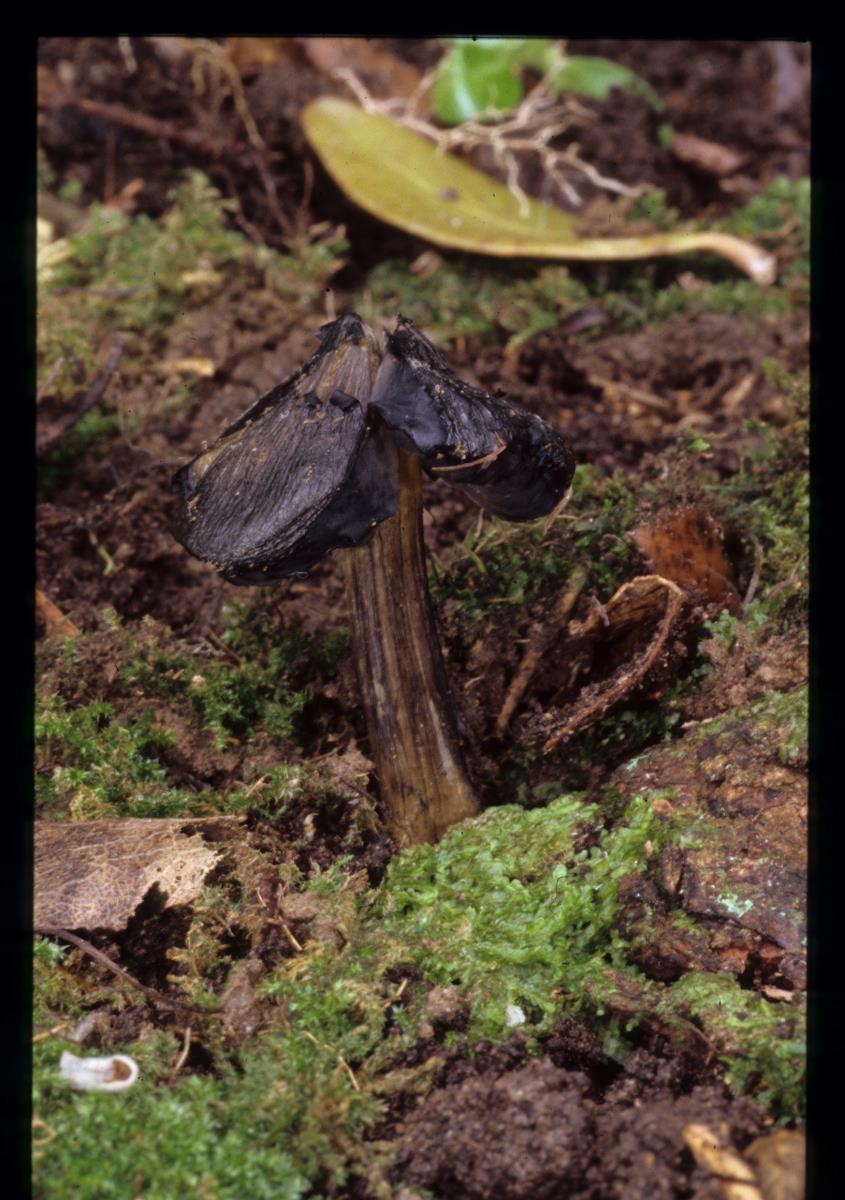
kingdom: Fungi
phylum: Basidiomycota
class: Agaricomycetes
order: Agaricales
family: Hygrophoraceae
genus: Hygrocybe
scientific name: Hygrocybe astatogala
